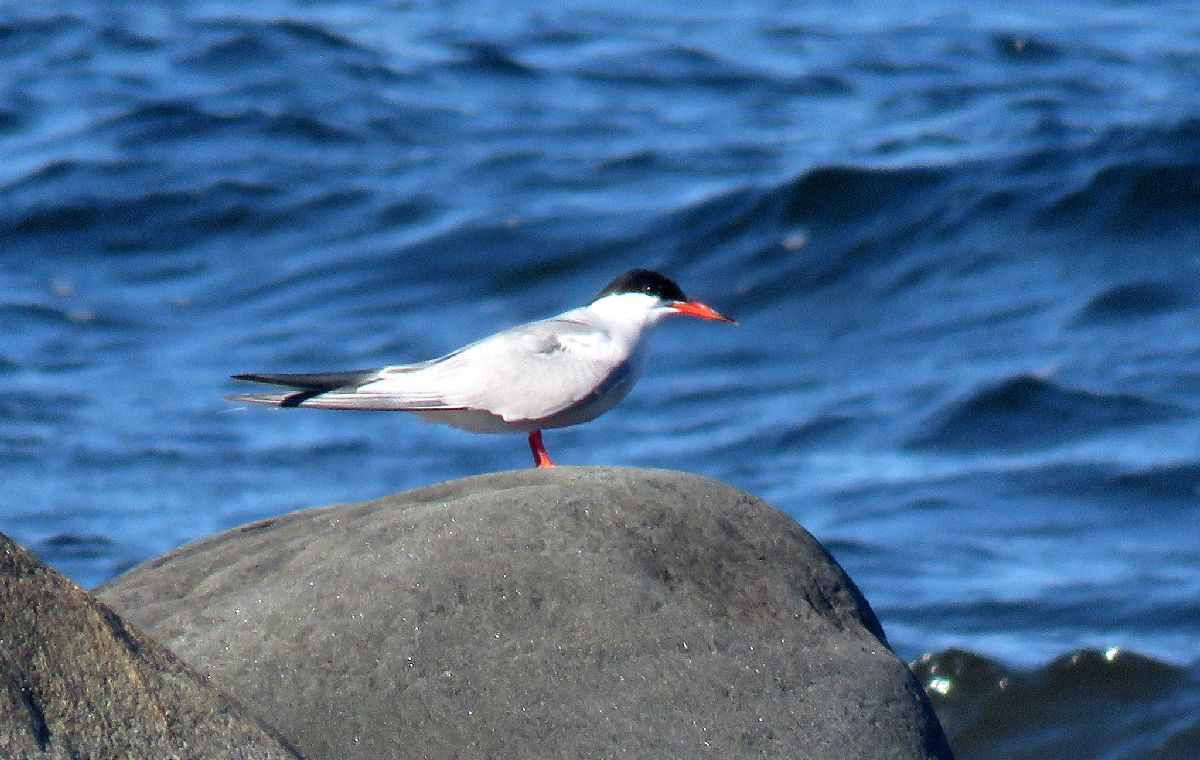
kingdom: Animalia
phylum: Chordata
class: Aves
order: Charadriiformes
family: Laridae
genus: Sterna
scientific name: Sterna hirundo
